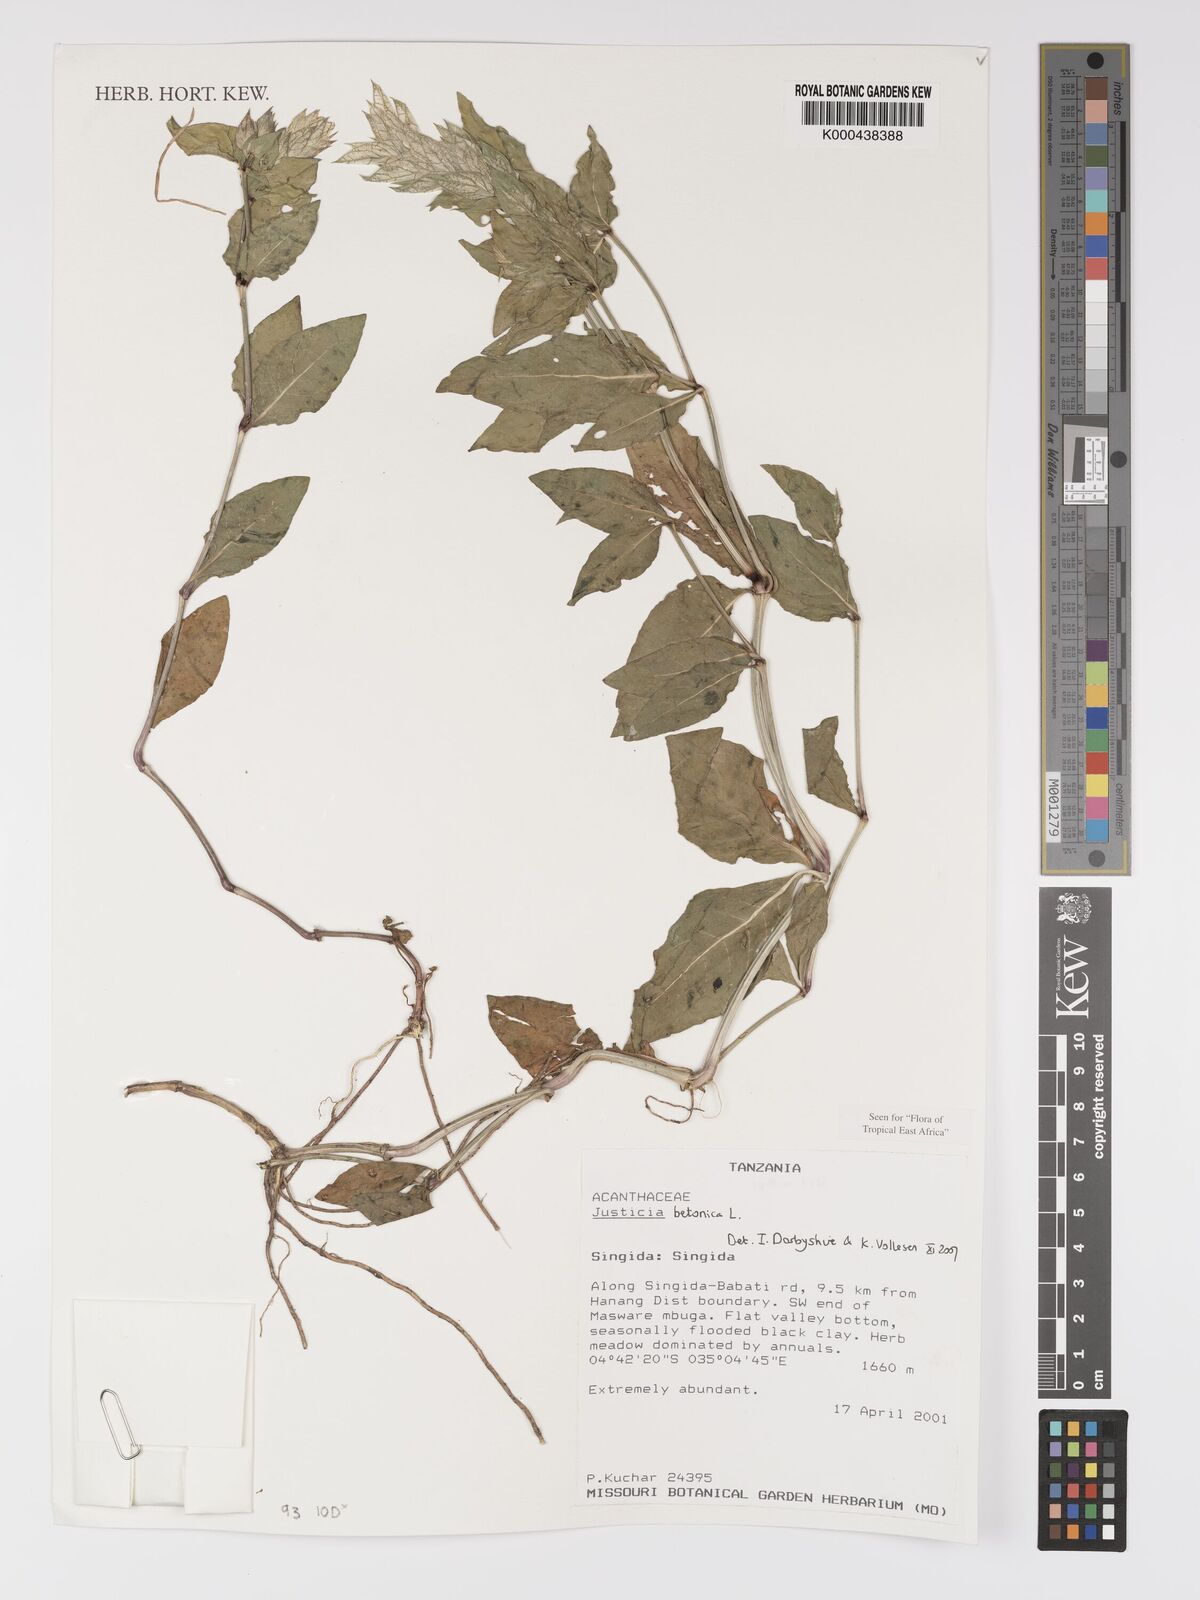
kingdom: Plantae
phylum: Tracheophyta
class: Magnoliopsida
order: Lamiales
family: Acanthaceae
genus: Nicoteba
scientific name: Nicoteba betonica
